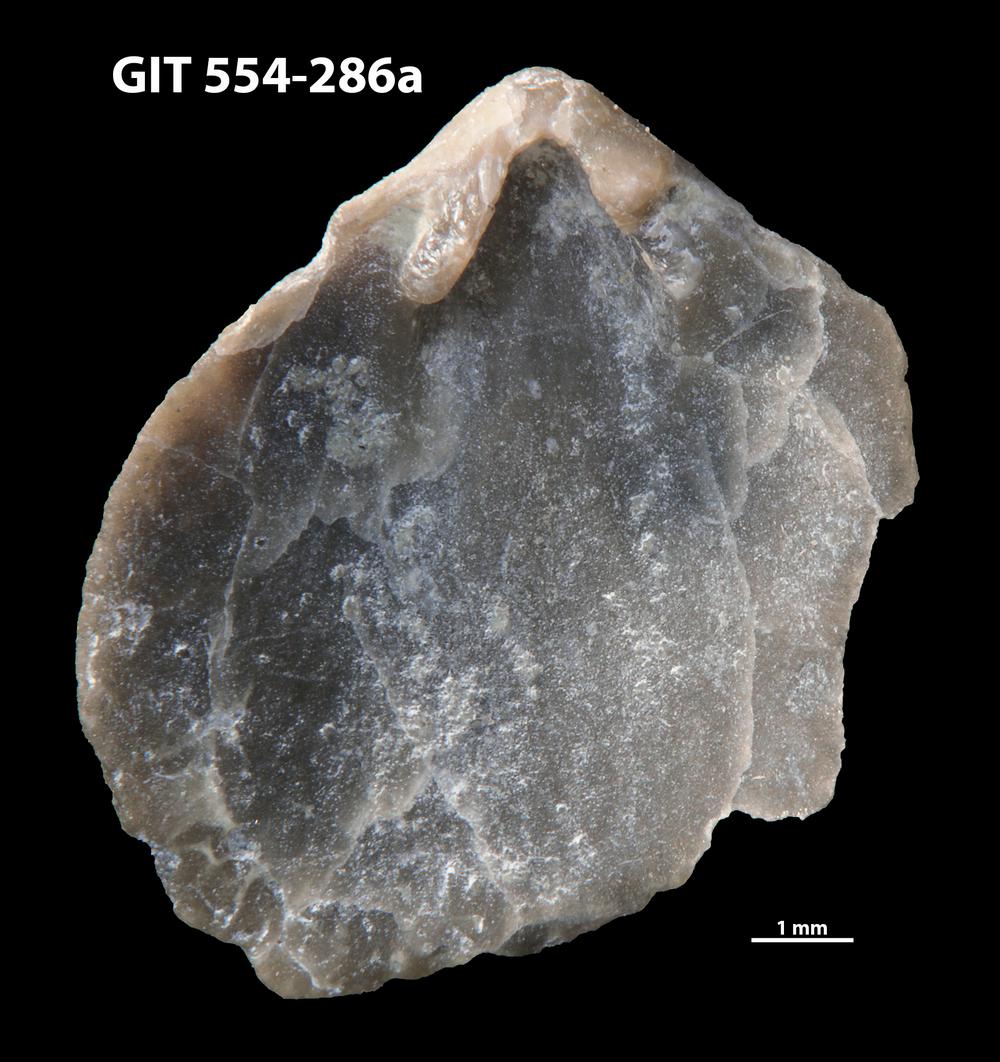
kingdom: Animalia
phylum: Brachiopoda
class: Rhynchonellata
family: Dalmanellidae
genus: Onniella
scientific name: Onniella trigona
